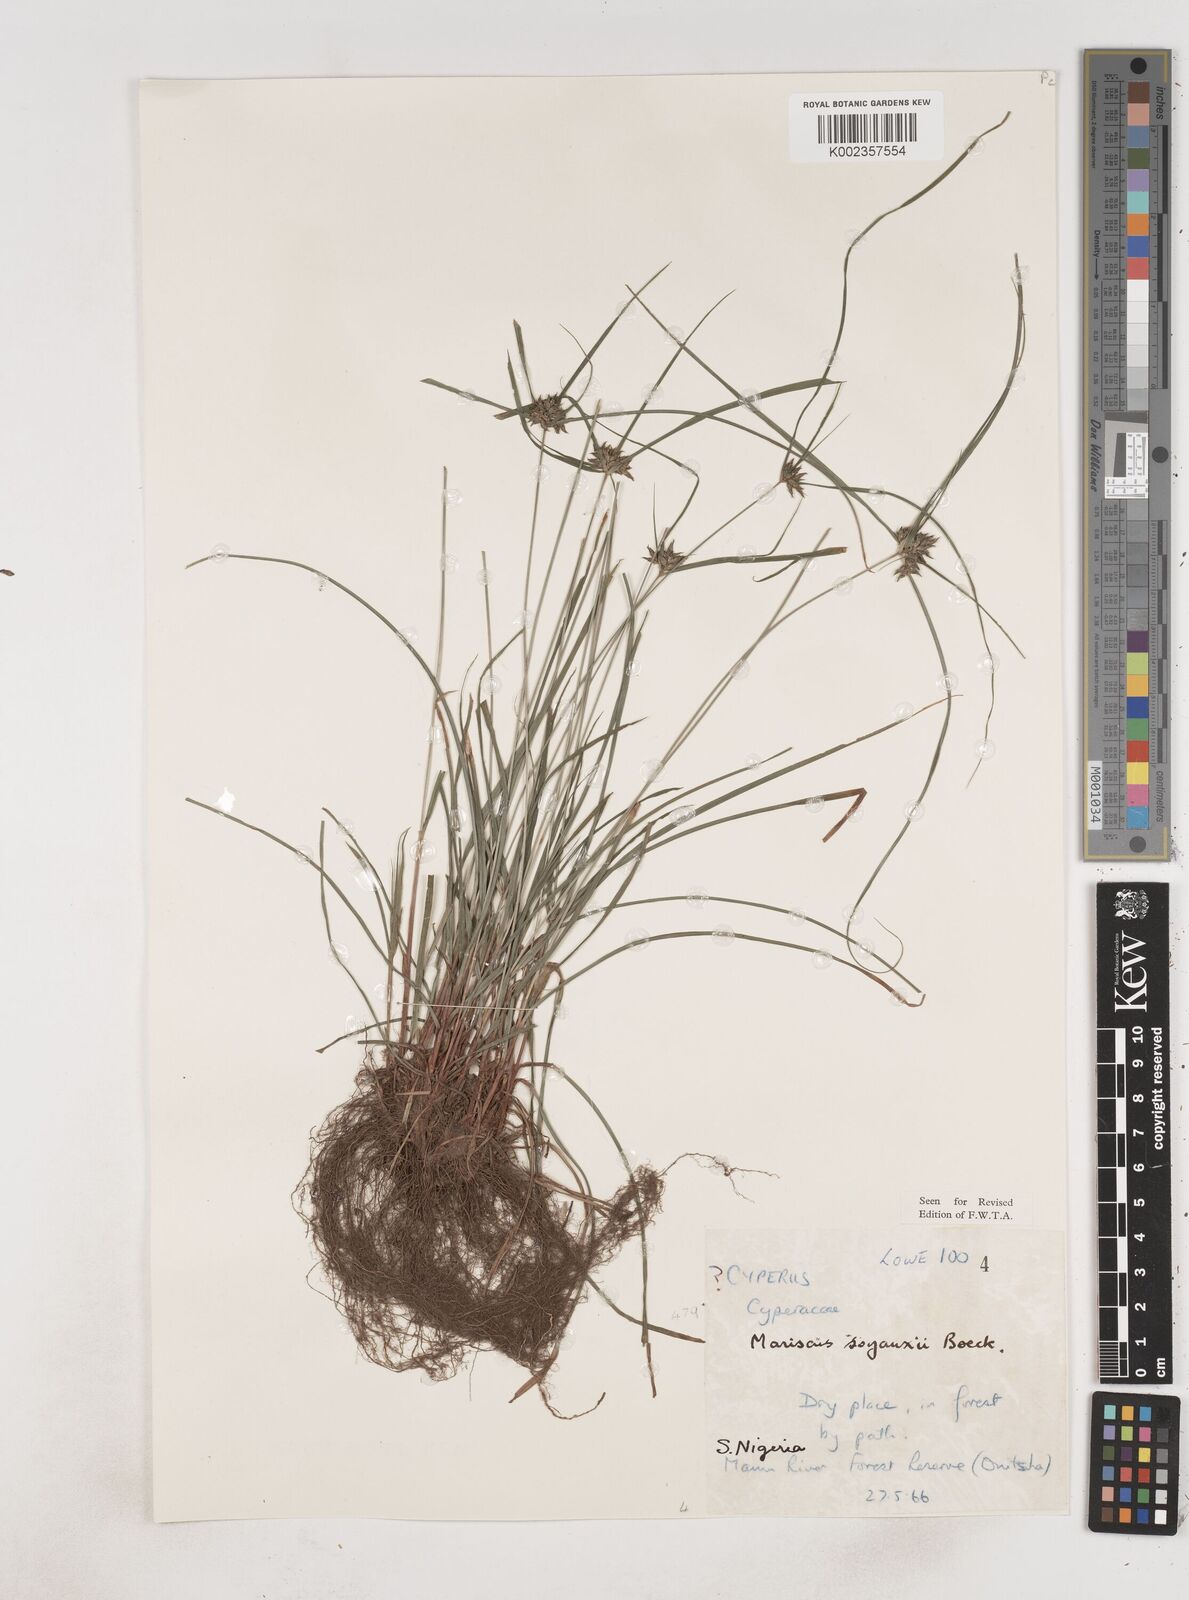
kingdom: Plantae
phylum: Tracheophyta
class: Liliopsida
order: Poales
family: Cyperaceae
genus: Cyperus
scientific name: Cyperus soyauxii
